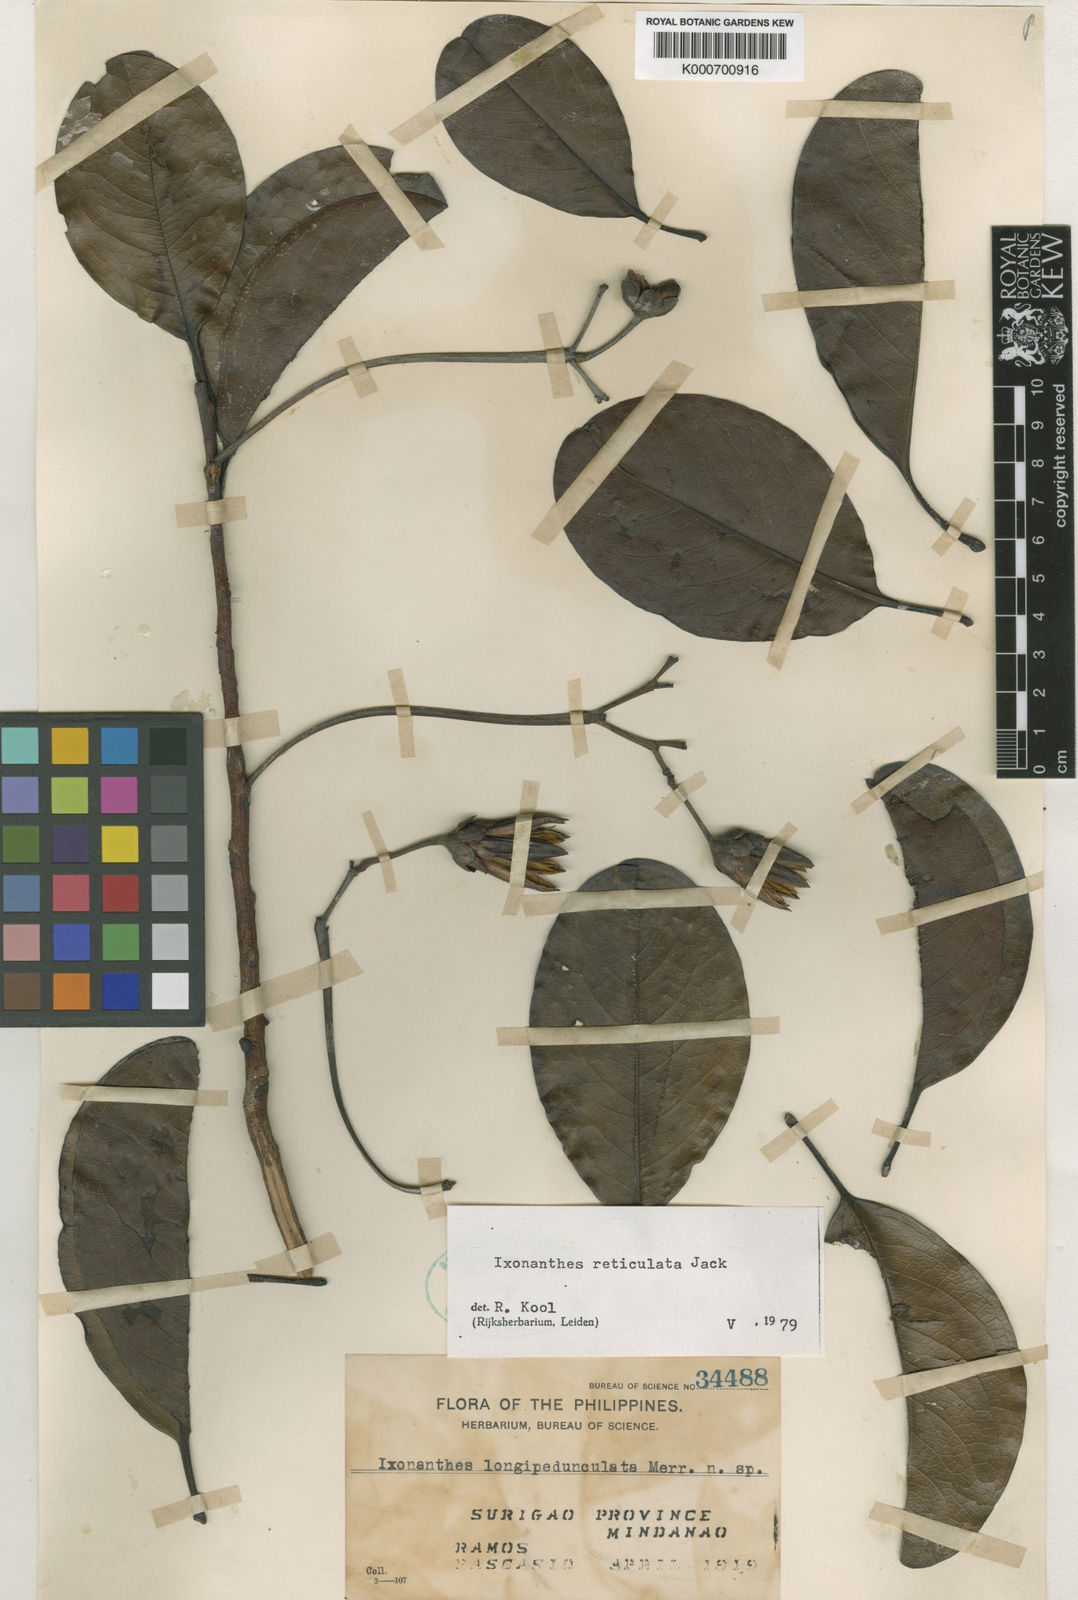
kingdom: Plantae
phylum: Tracheophyta
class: Magnoliopsida
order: Malpighiales
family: Ixonanthaceae
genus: Ixonanthes
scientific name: Ixonanthes reticulata
